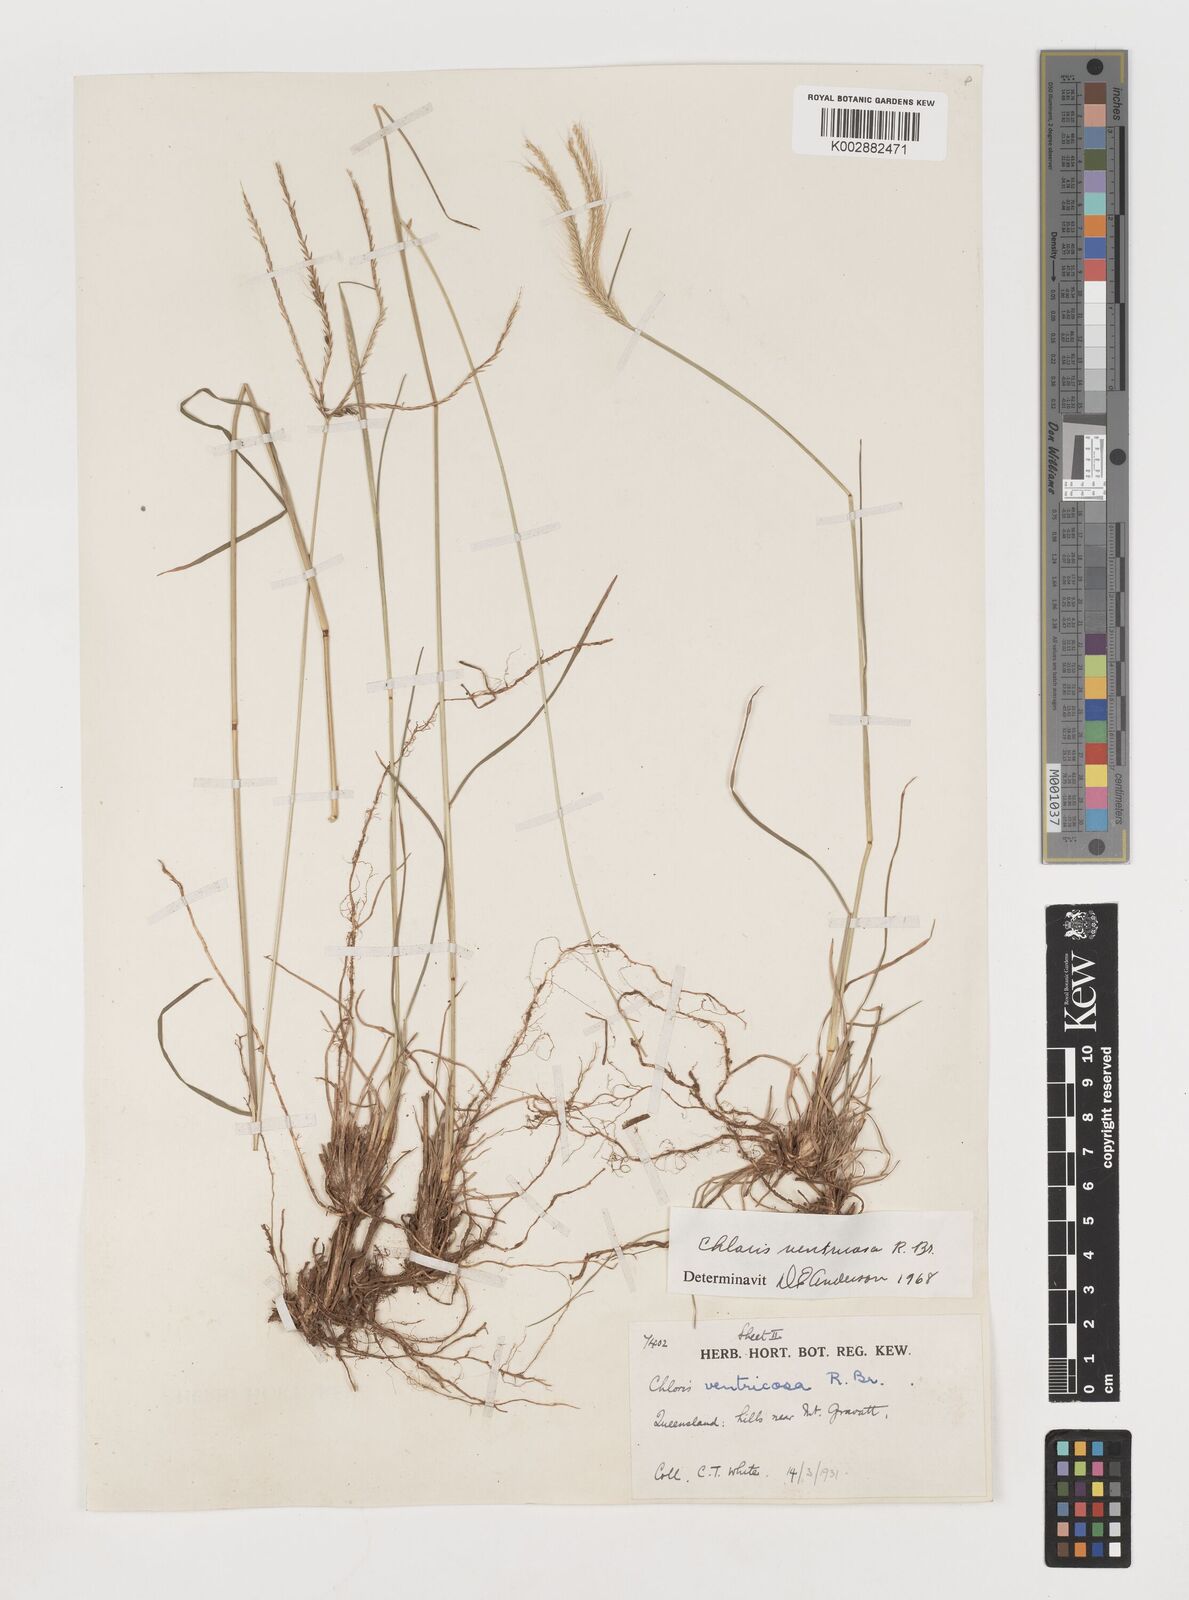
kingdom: Plantae
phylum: Tracheophyta
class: Liliopsida
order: Poales
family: Poaceae
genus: Chloris
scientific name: Chloris ventricosa
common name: Australian windmill grass
